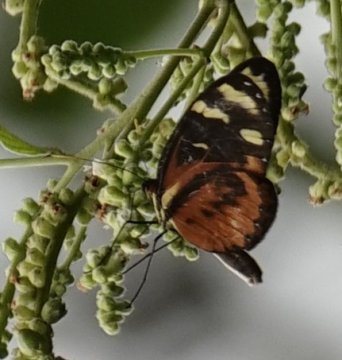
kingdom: Animalia
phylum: Arthropoda
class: Insecta
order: Lepidoptera
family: Nymphalidae
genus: Mechanitis
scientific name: Mechanitis polymnia
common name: Polymnia Tigerwing
